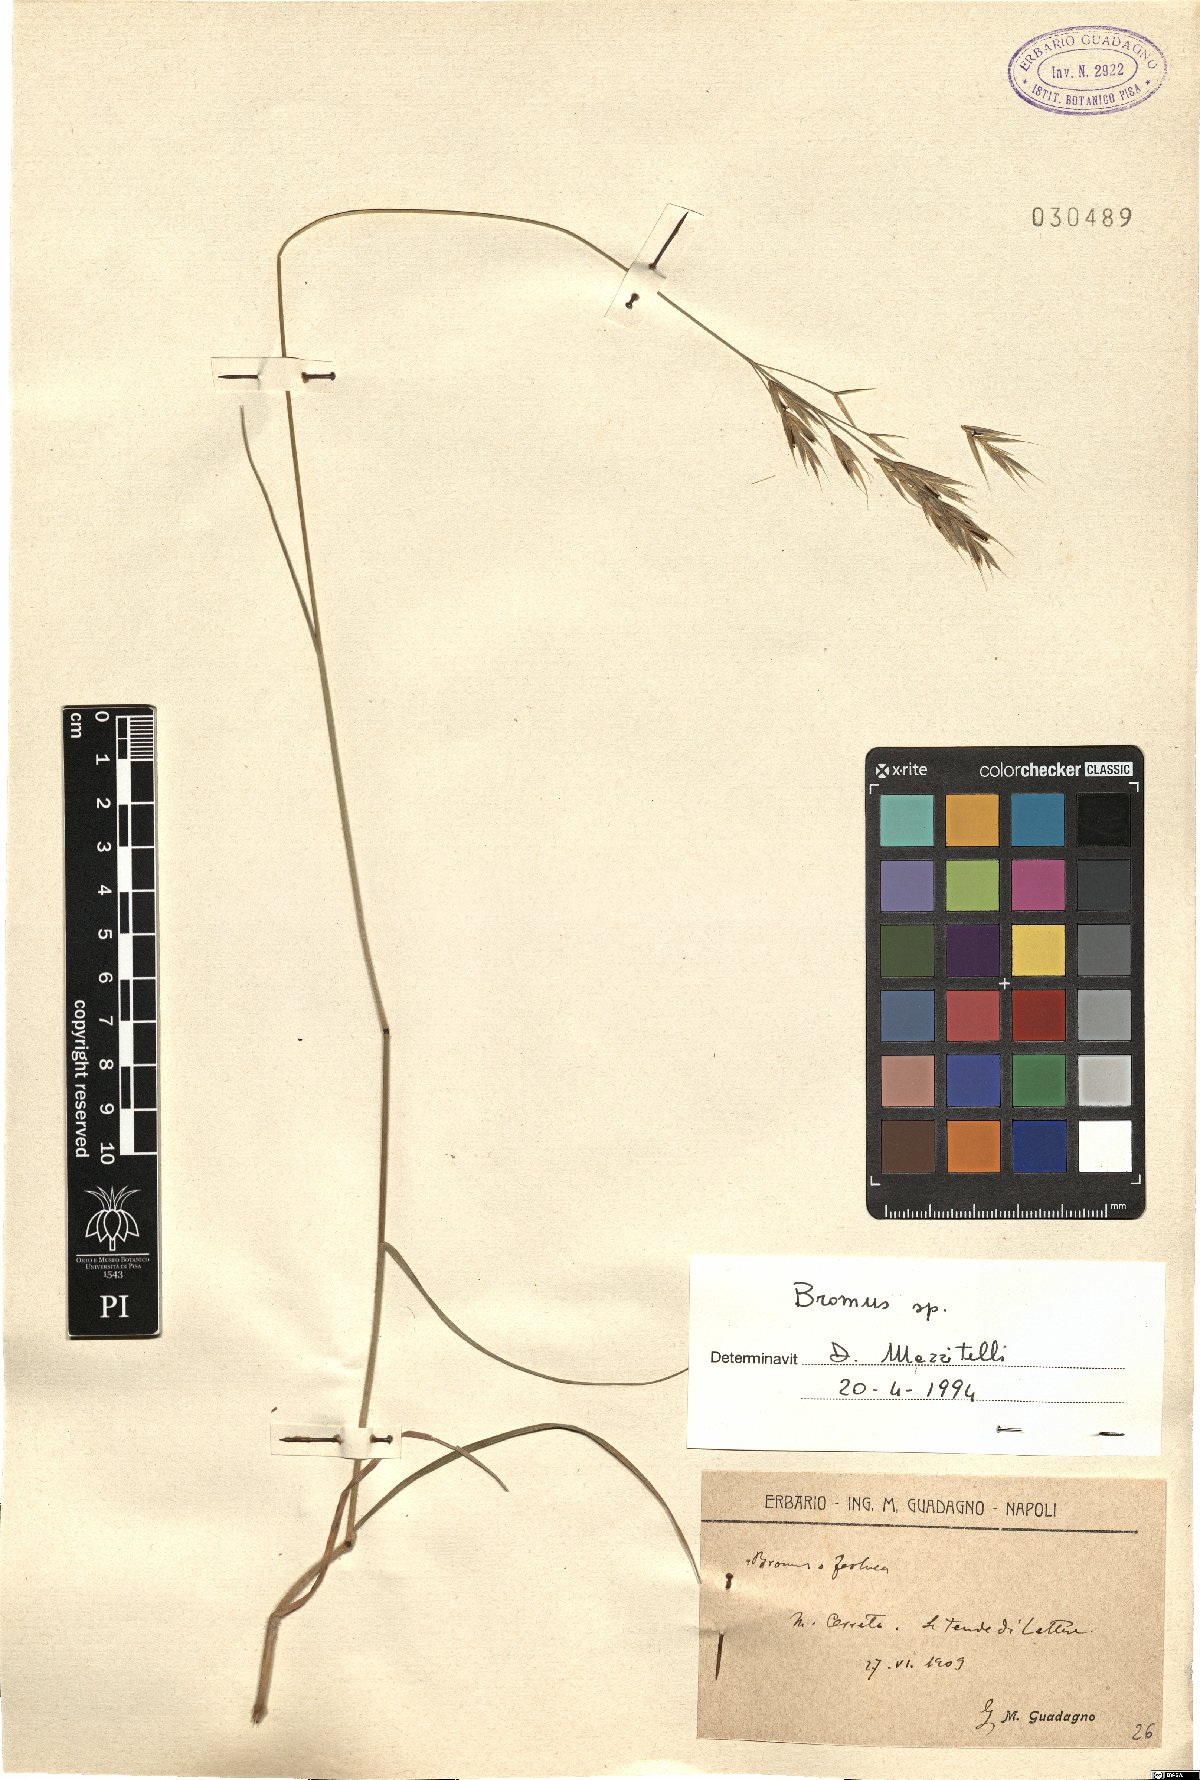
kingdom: Plantae
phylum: Tracheophyta
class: Liliopsida
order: Poales
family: Poaceae
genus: Bromus
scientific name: Bromus
